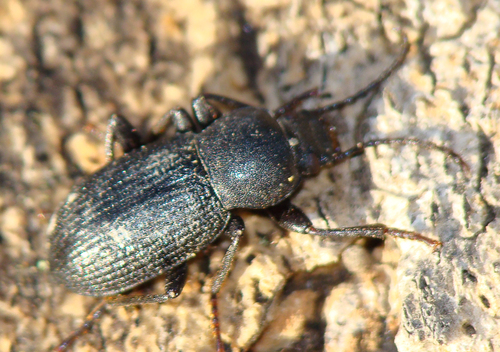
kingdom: Animalia
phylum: Arthropoda
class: Insecta
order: Coleoptera
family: Tenebrionidae
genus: Euboeus
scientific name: Euboeus anthracinus
